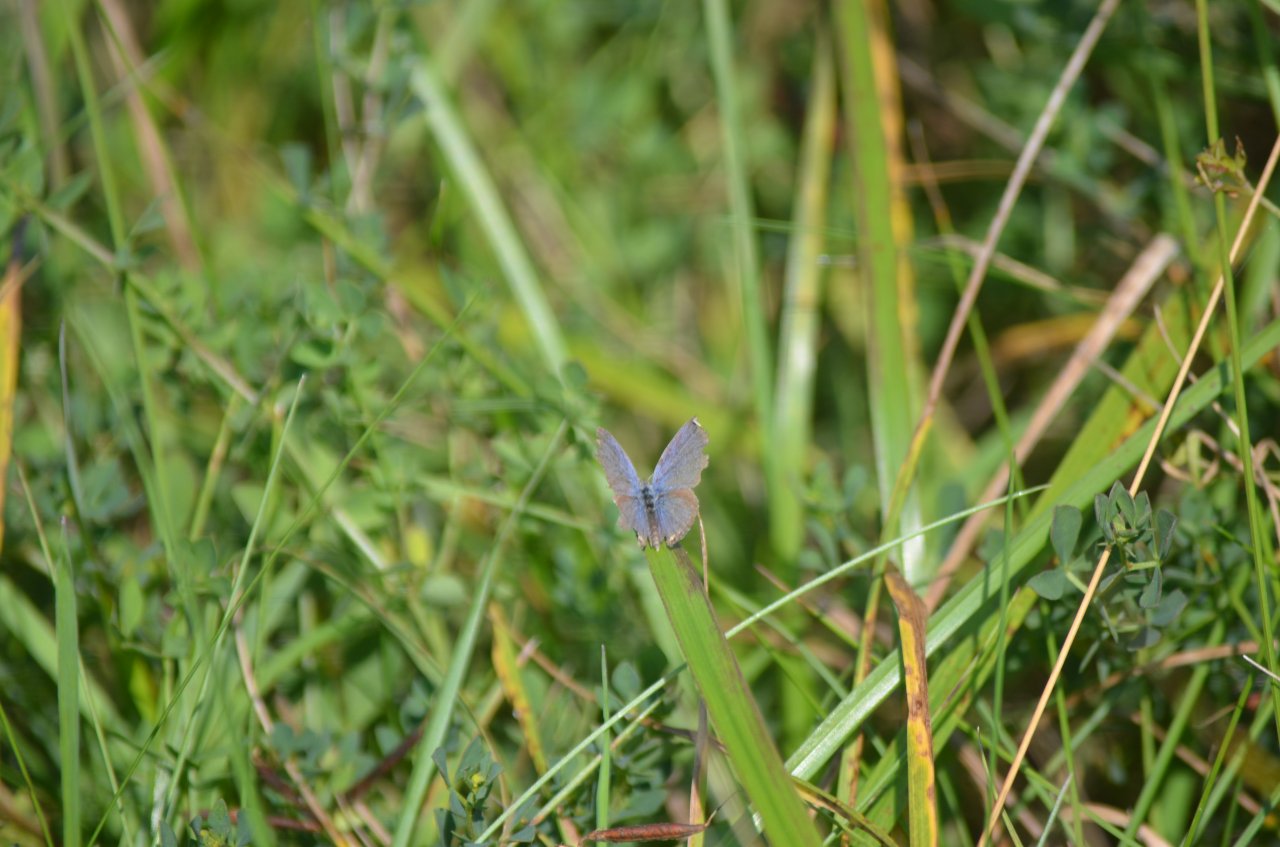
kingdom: Animalia
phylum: Arthropoda
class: Insecta
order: Lepidoptera
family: Lycaenidae
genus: Elkalyce
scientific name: Elkalyce comyntas
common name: Eastern Tailed-Blue
